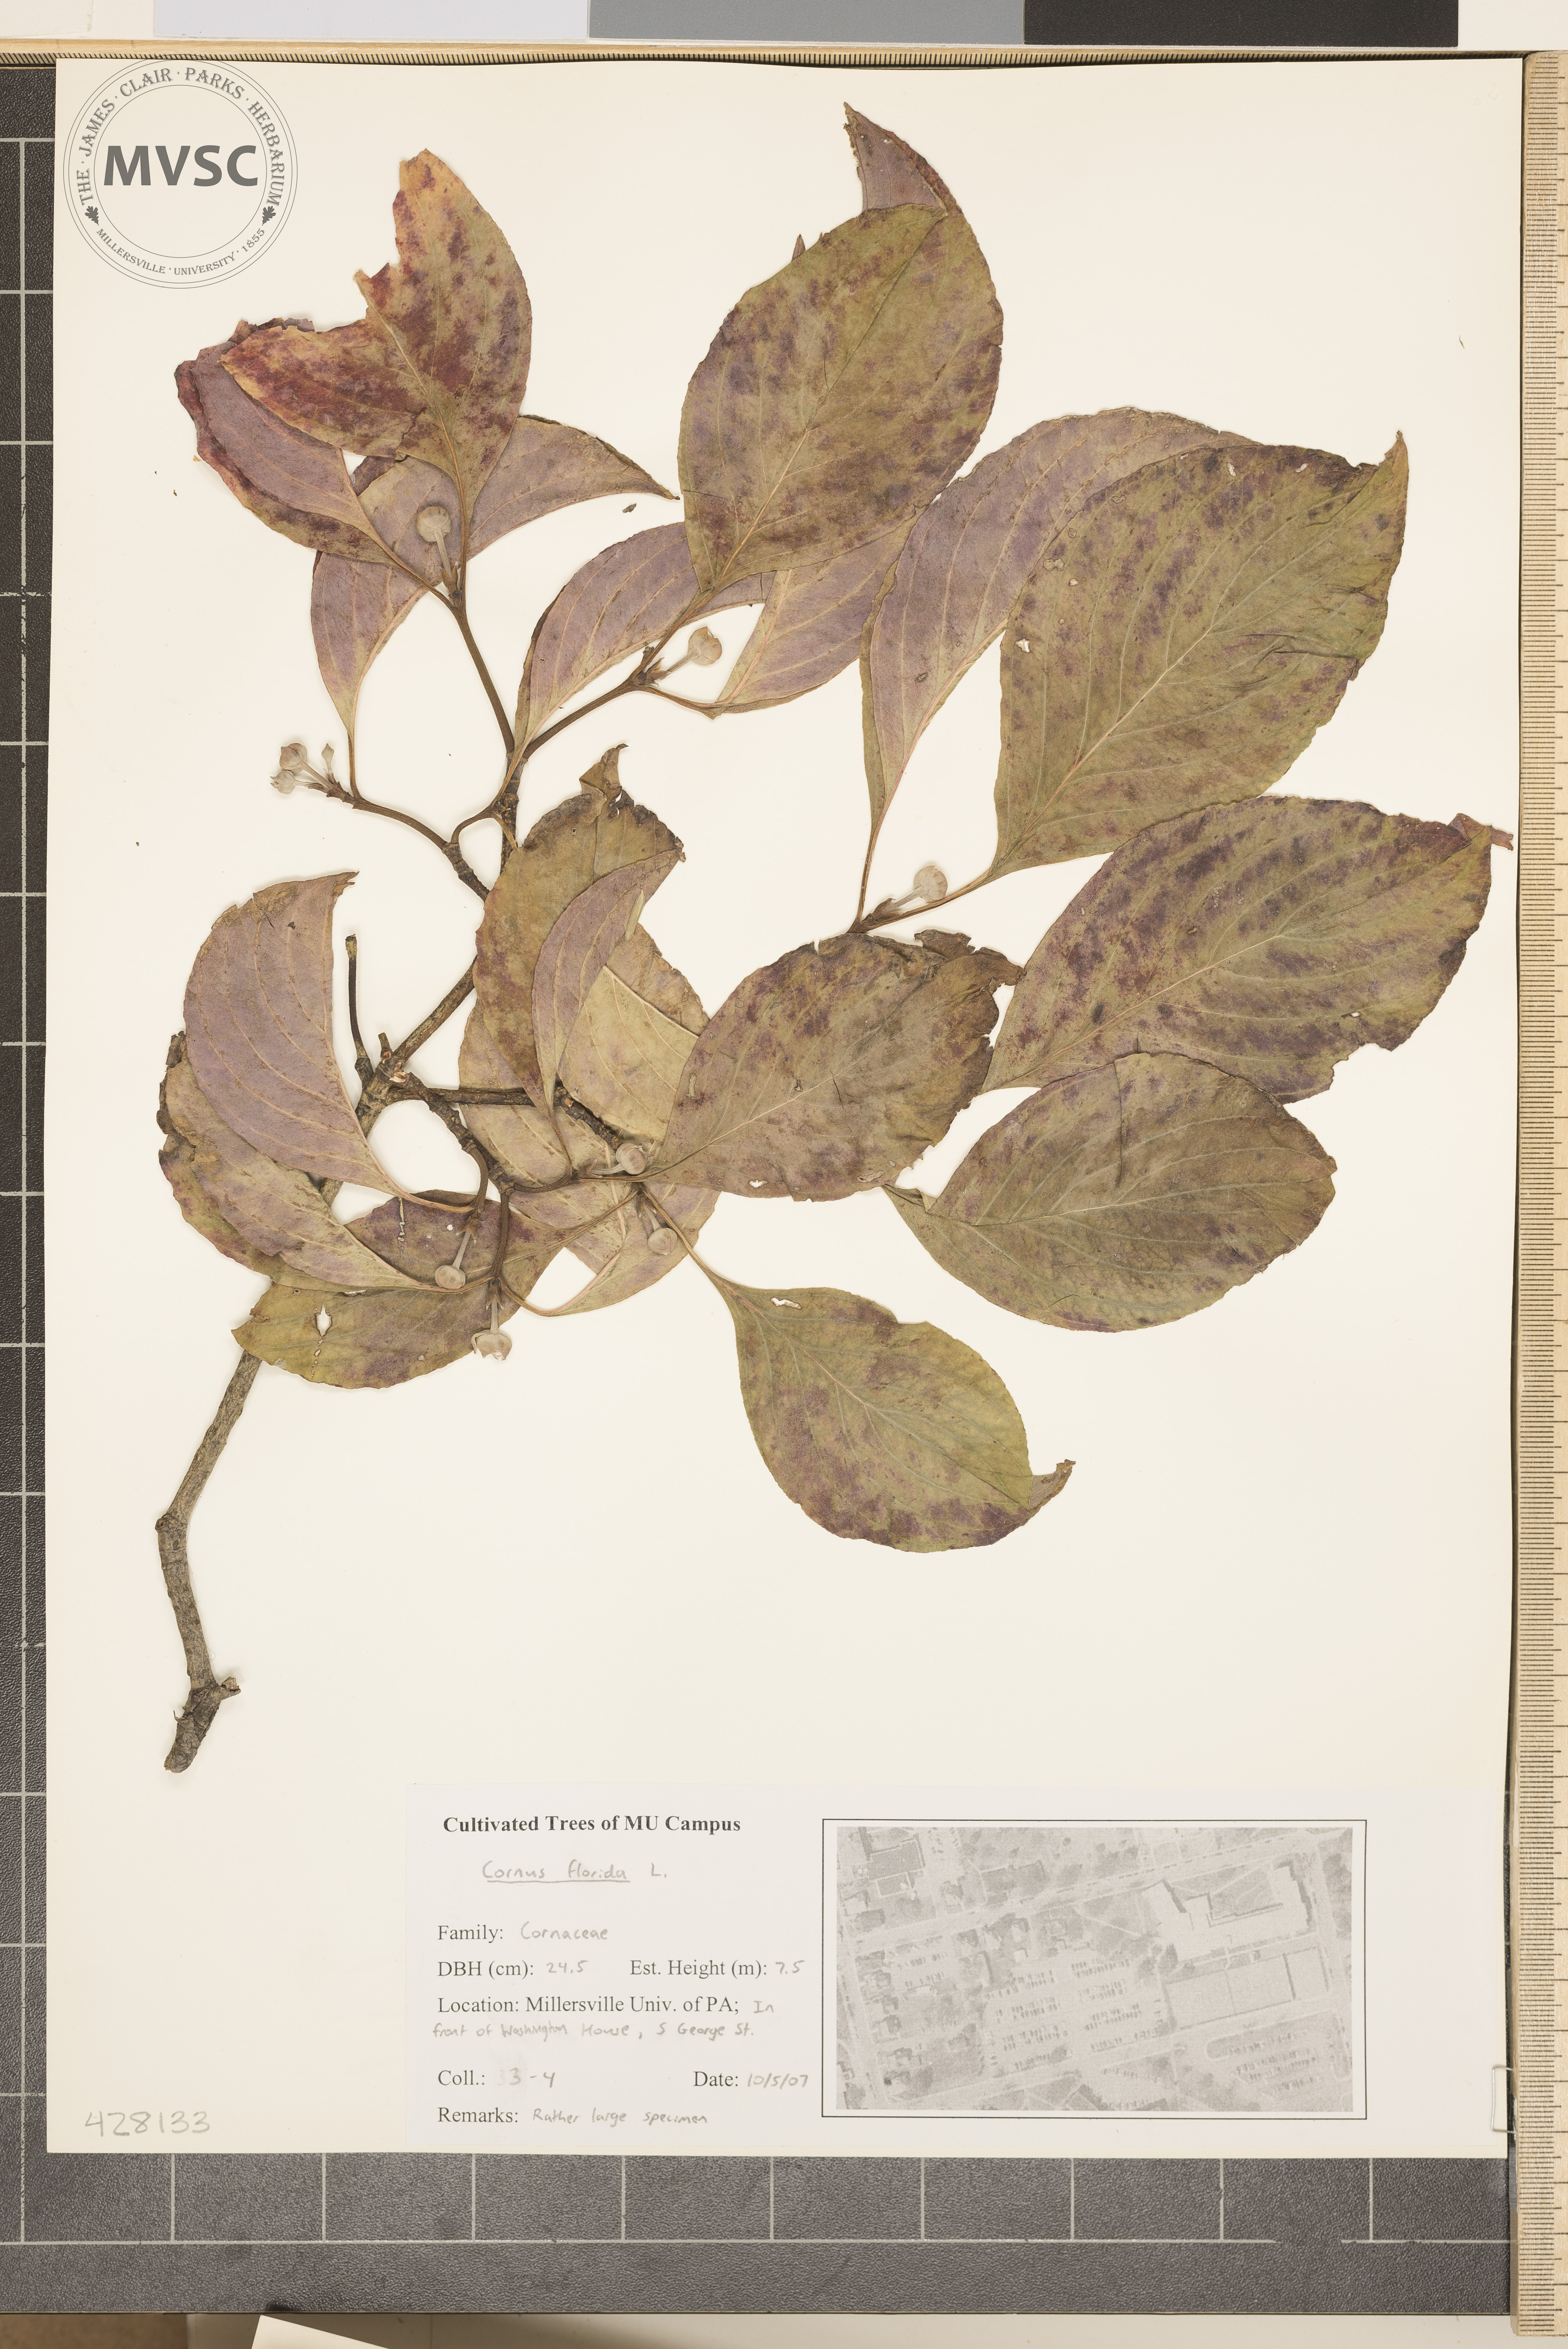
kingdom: Plantae
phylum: Tracheophyta
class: Magnoliopsida
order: Cornales
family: Cornaceae
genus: Cornus
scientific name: Cornus florida
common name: Flowering Dogwood
